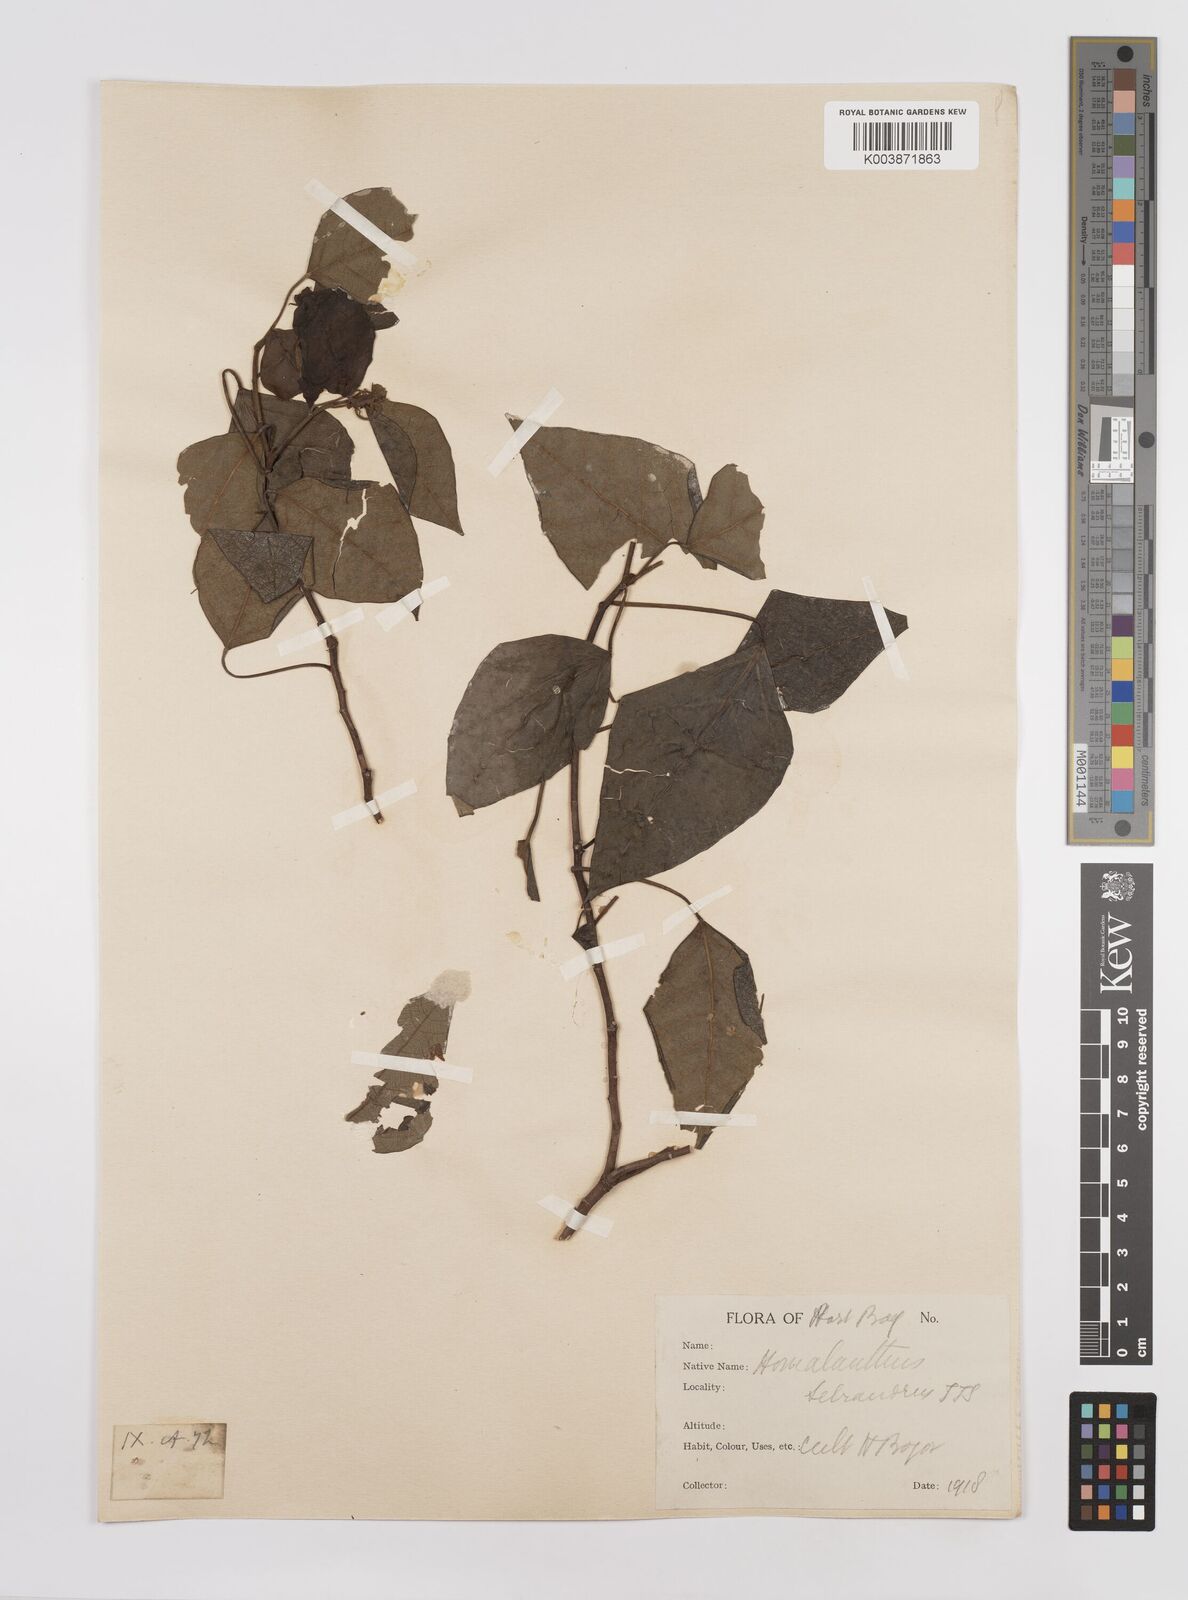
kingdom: Plantae
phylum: Tracheophyta
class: Magnoliopsida
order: Malpighiales
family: Euphorbiaceae
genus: Homalanthus
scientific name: Homalanthus novoguineensis
